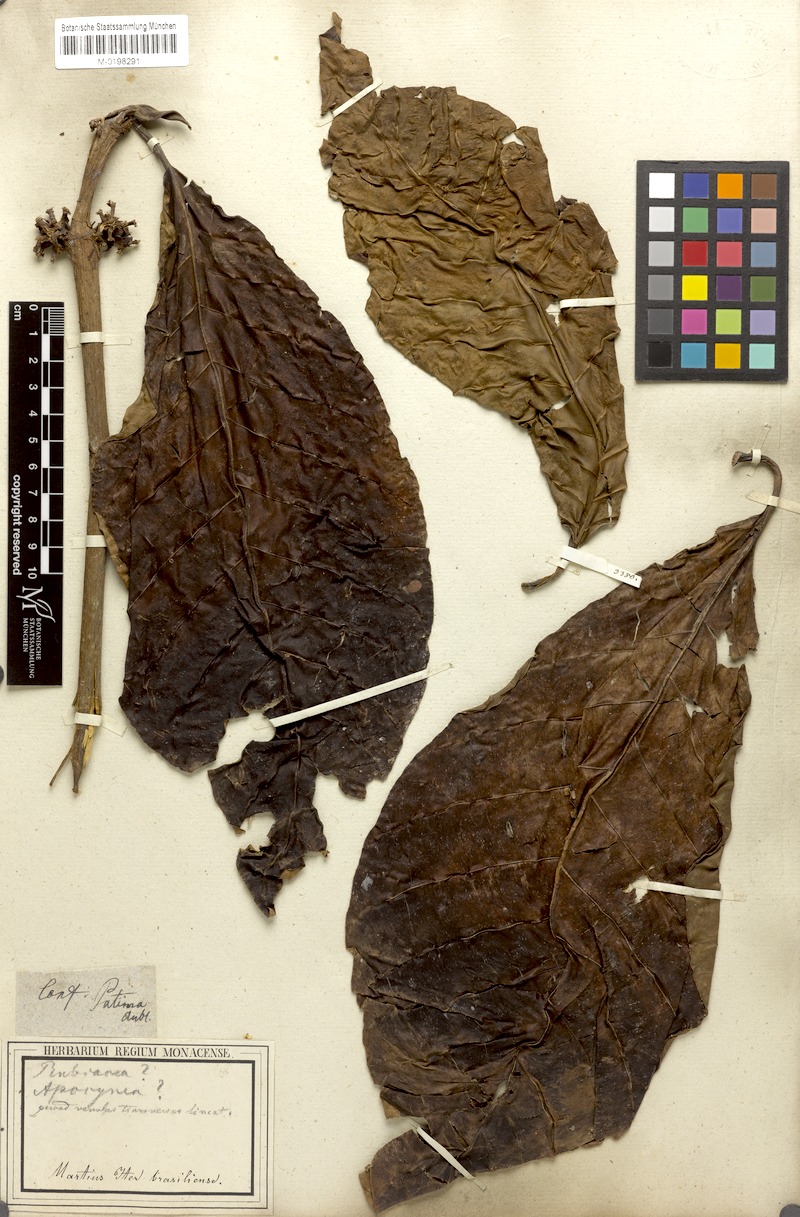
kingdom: Plantae
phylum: Tracheophyta
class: Magnoliopsida
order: Gentianales
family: Rubiaceae
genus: Pentagonia
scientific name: Pentagonia spathicalyx
